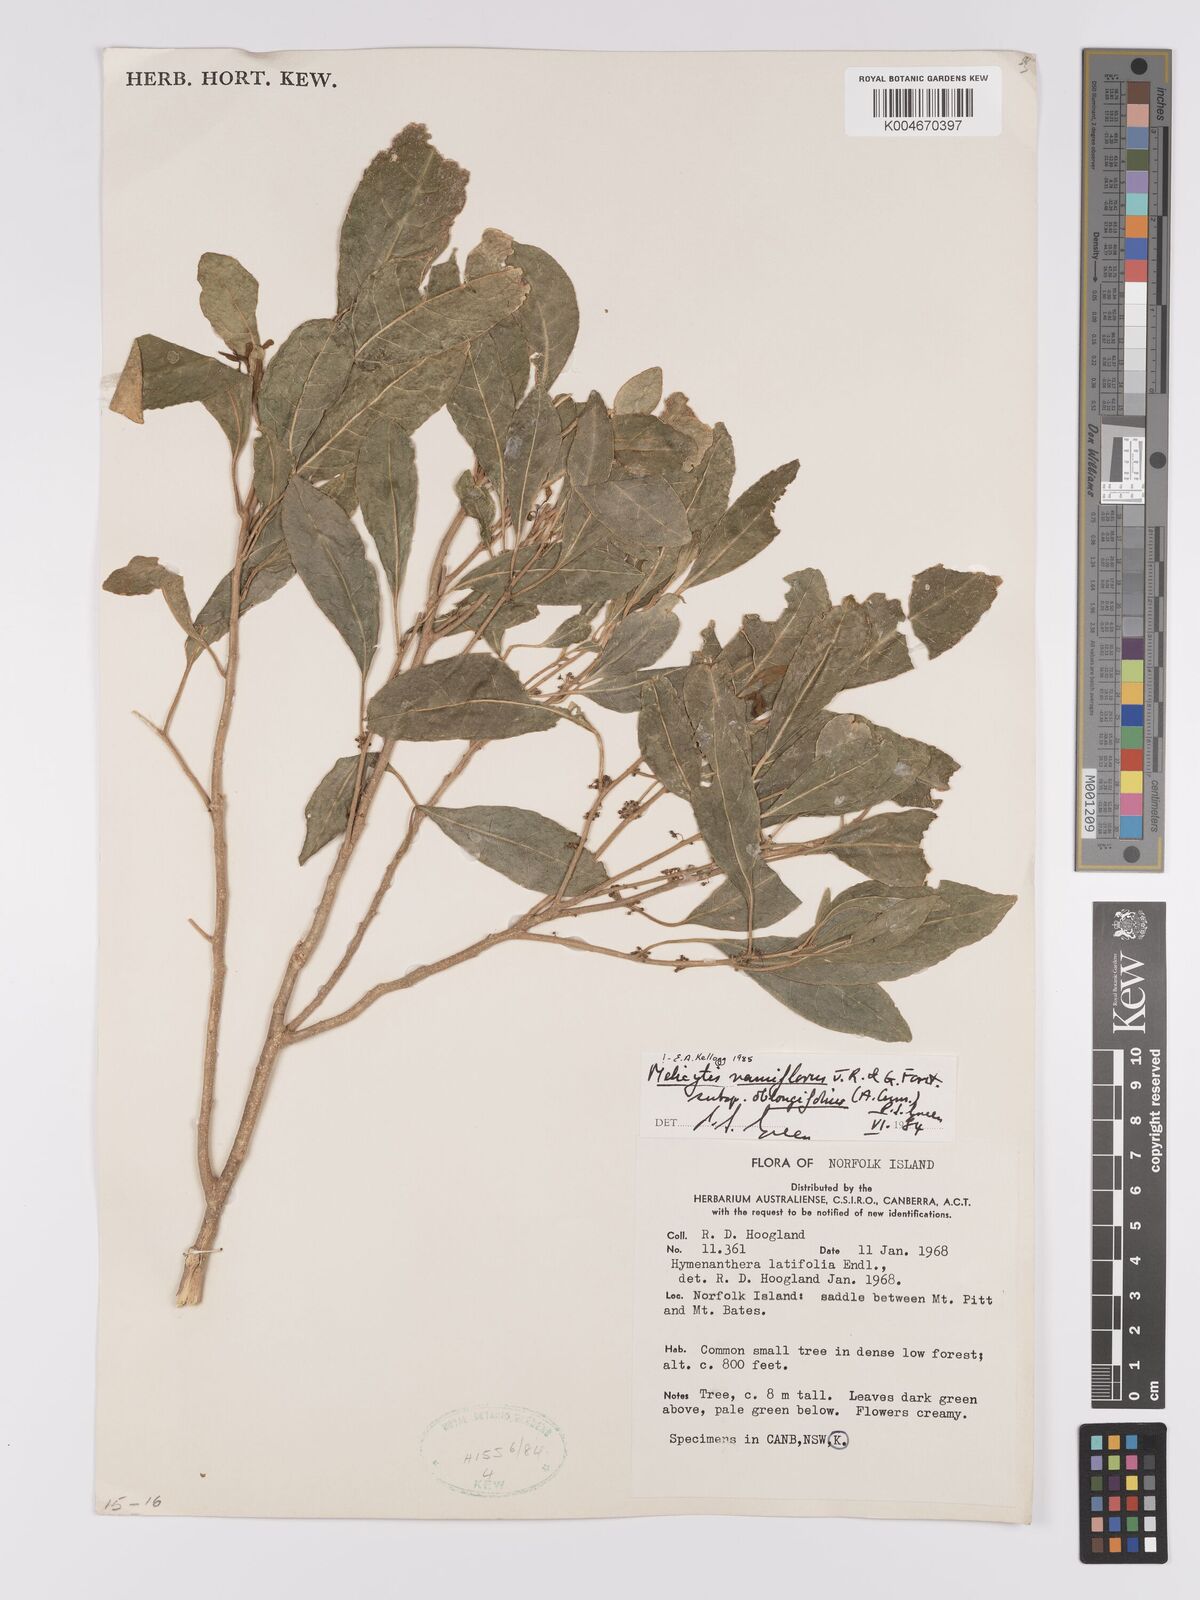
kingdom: Plantae
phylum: Tracheophyta
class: Magnoliopsida
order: Malpighiales
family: Violaceae
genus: Melicytus
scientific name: Melicytus ramiflorus
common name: Mahoe
